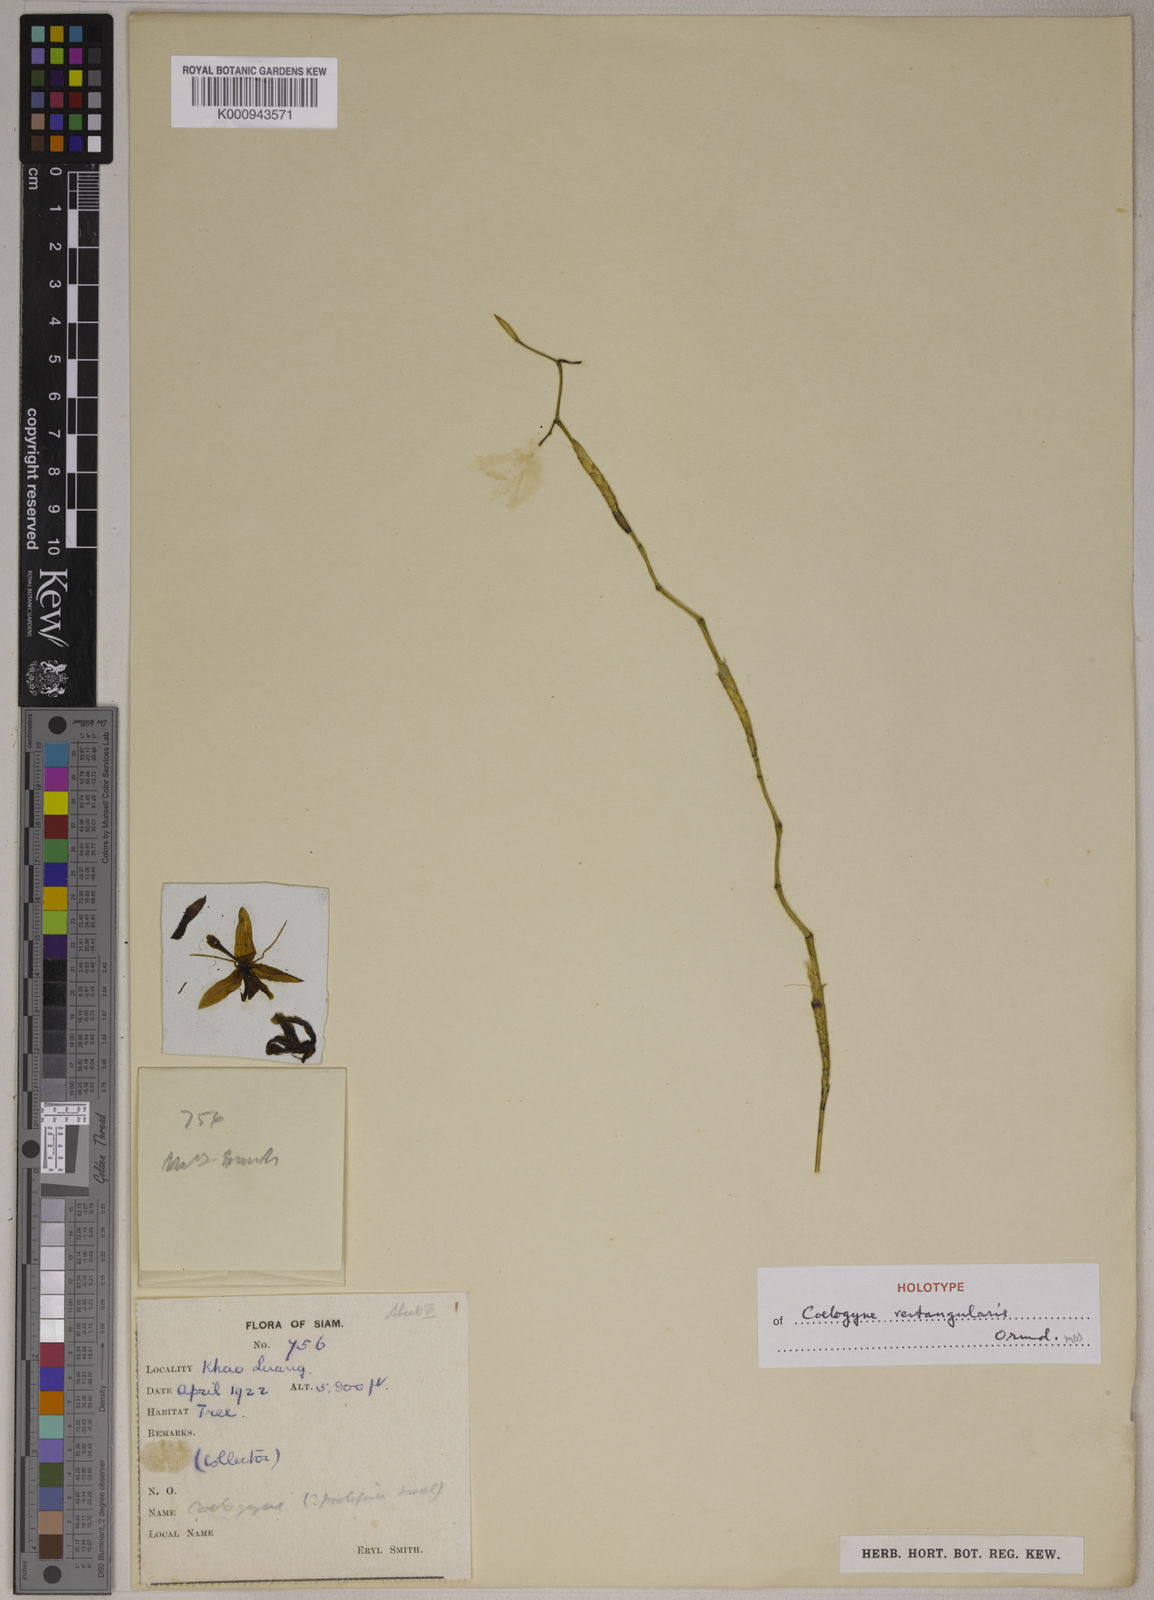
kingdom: Plantae
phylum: Tracheophyta
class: Liliopsida
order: Asparagales
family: Orchidaceae
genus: Coelogyne
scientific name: Coelogyne schultesii
